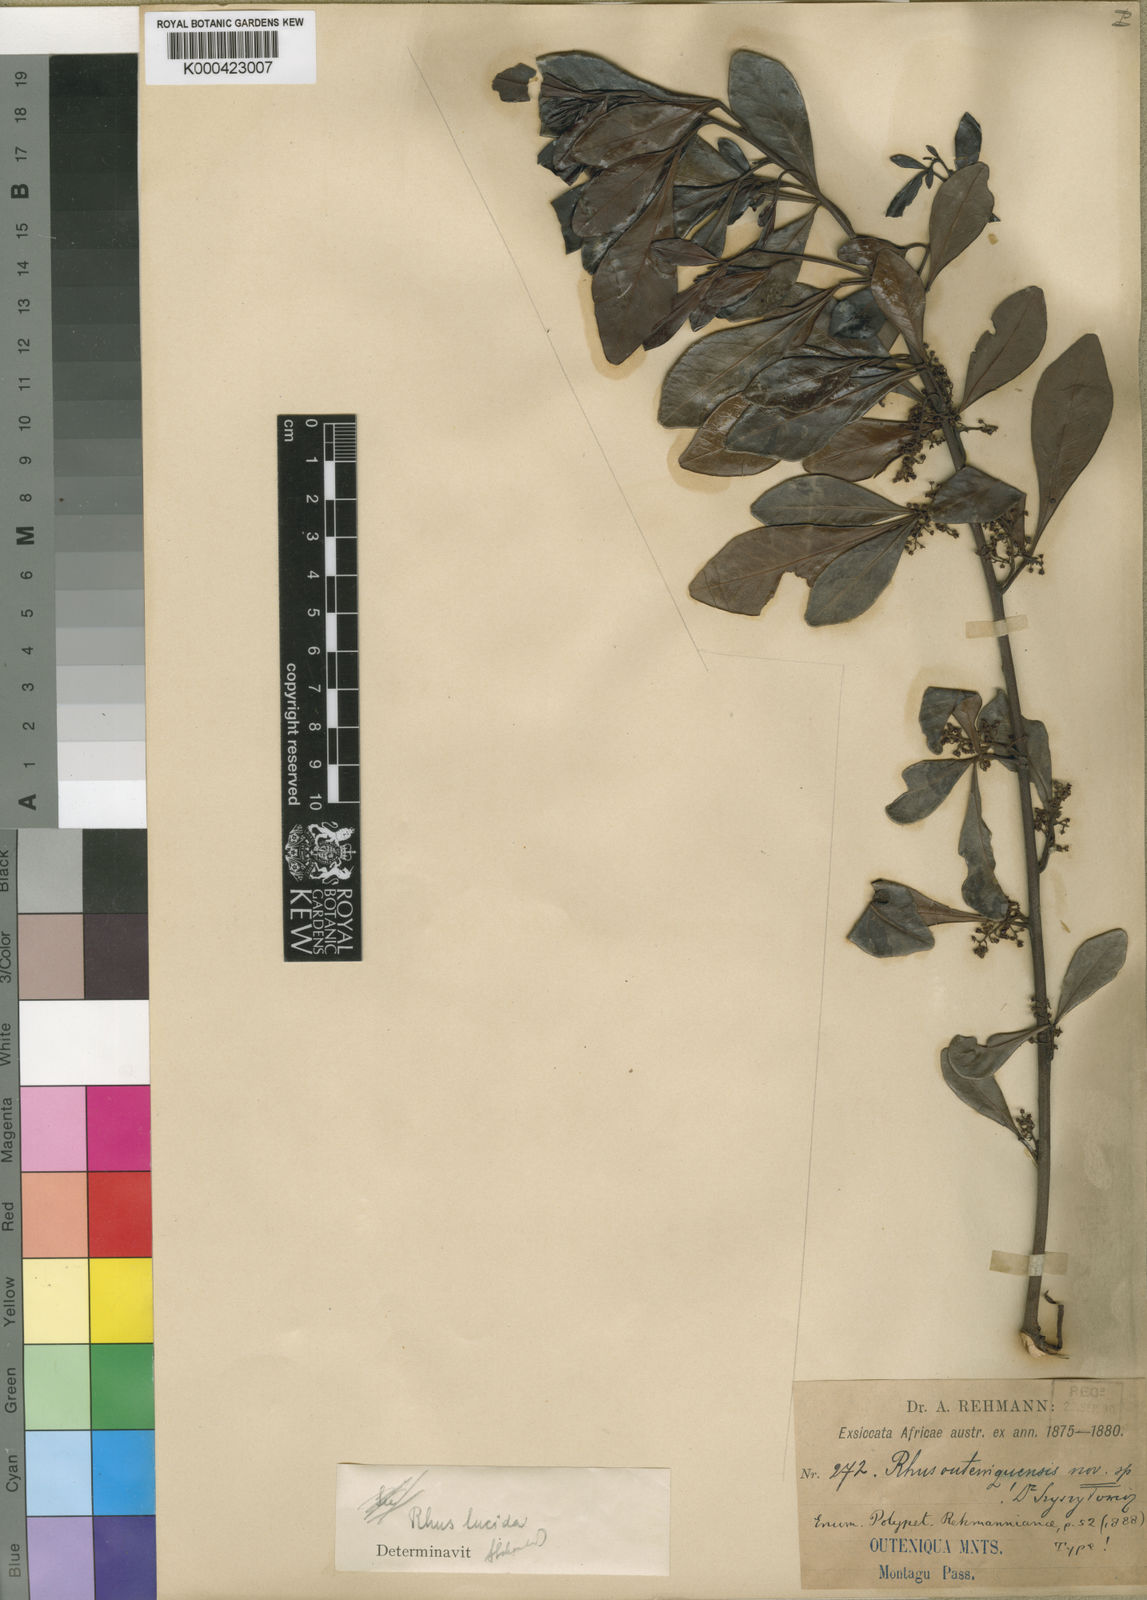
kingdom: Plantae
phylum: Tracheophyta
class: Magnoliopsida
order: Sapindales
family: Anacardiaceae
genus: Searsia
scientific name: Searsia lucida
